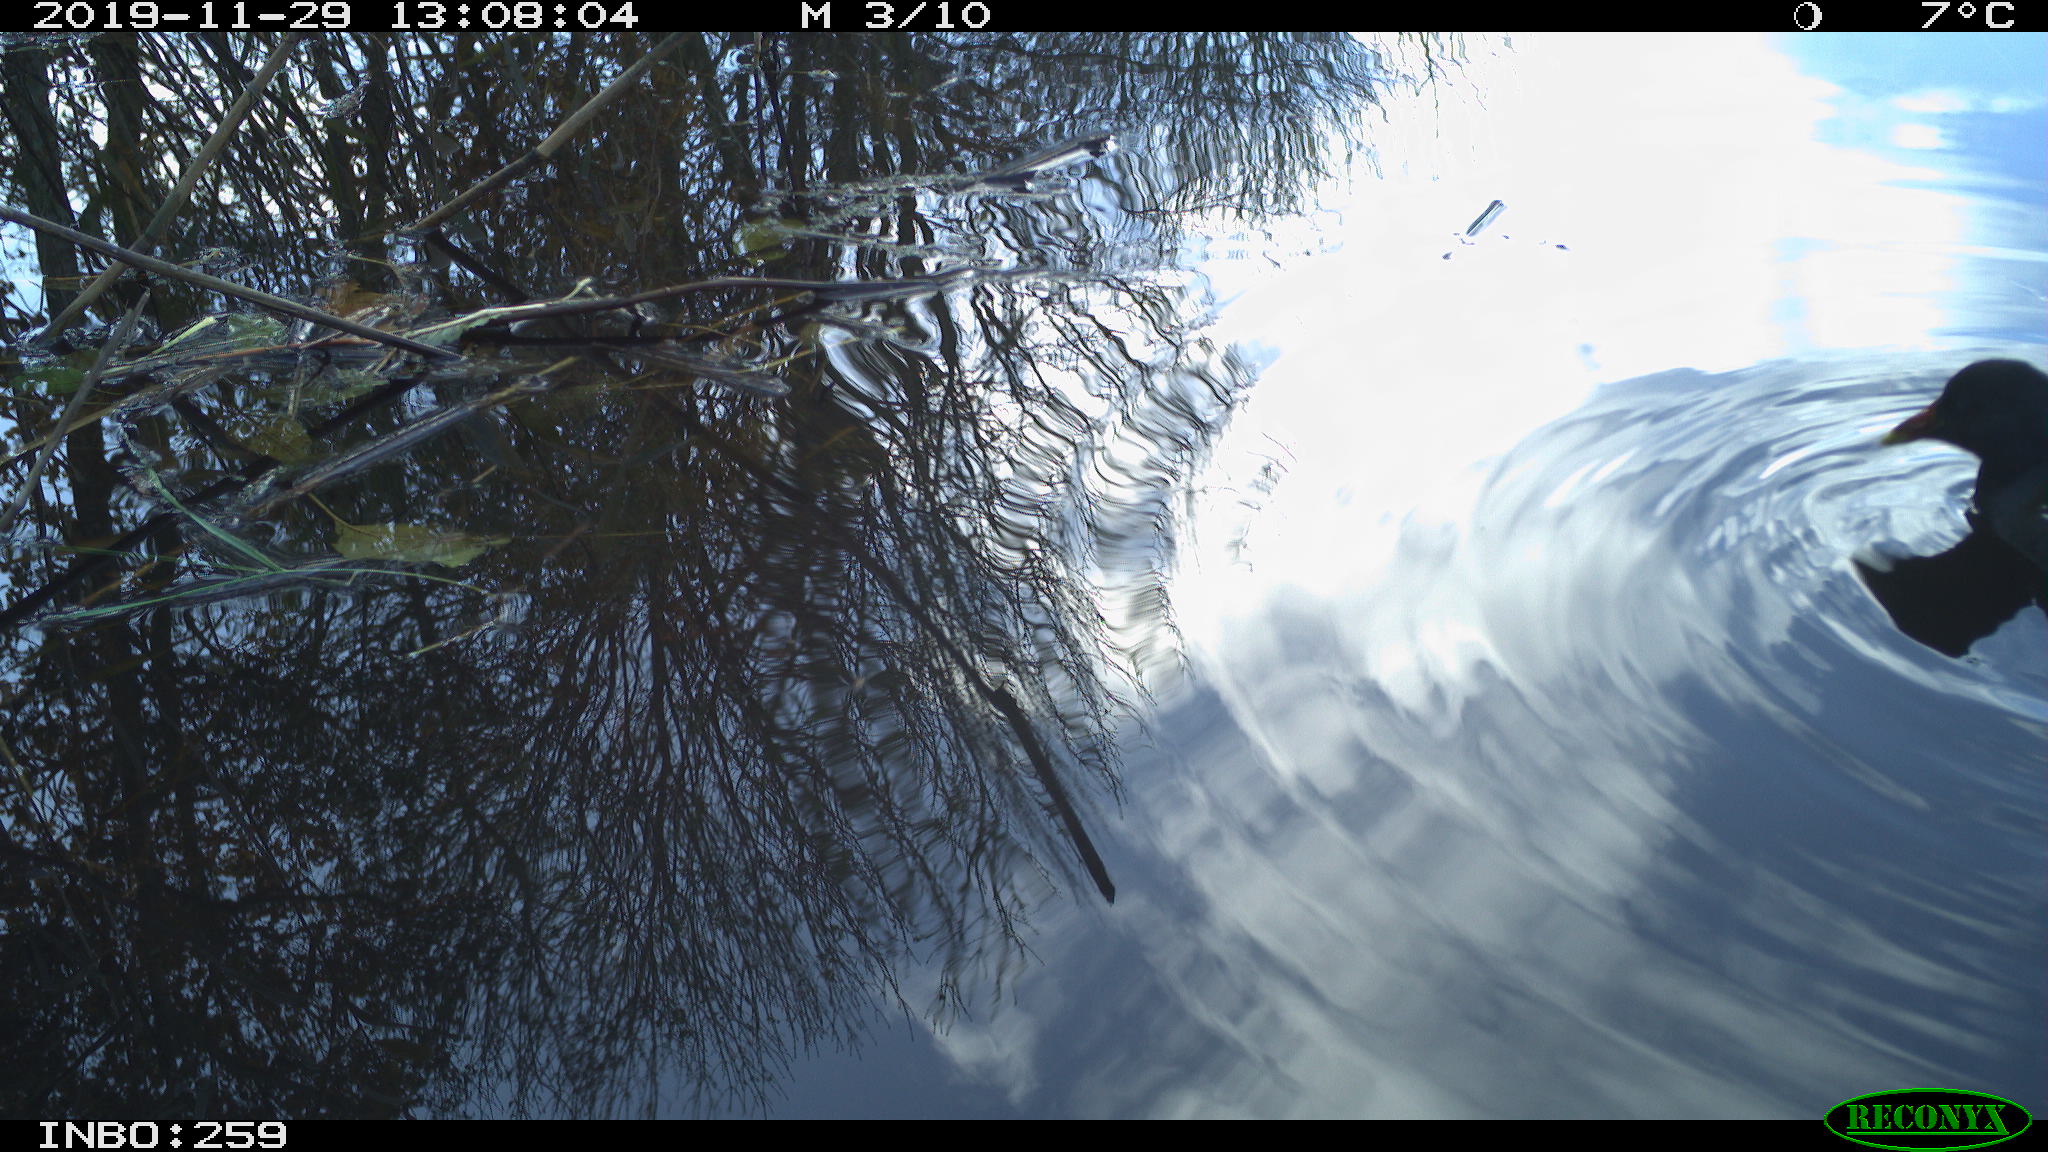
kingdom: Animalia
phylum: Chordata
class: Aves
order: Gruiformes
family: Rallidae
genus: Gallinula
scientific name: Gallinula chloropus
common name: Common moorhen
